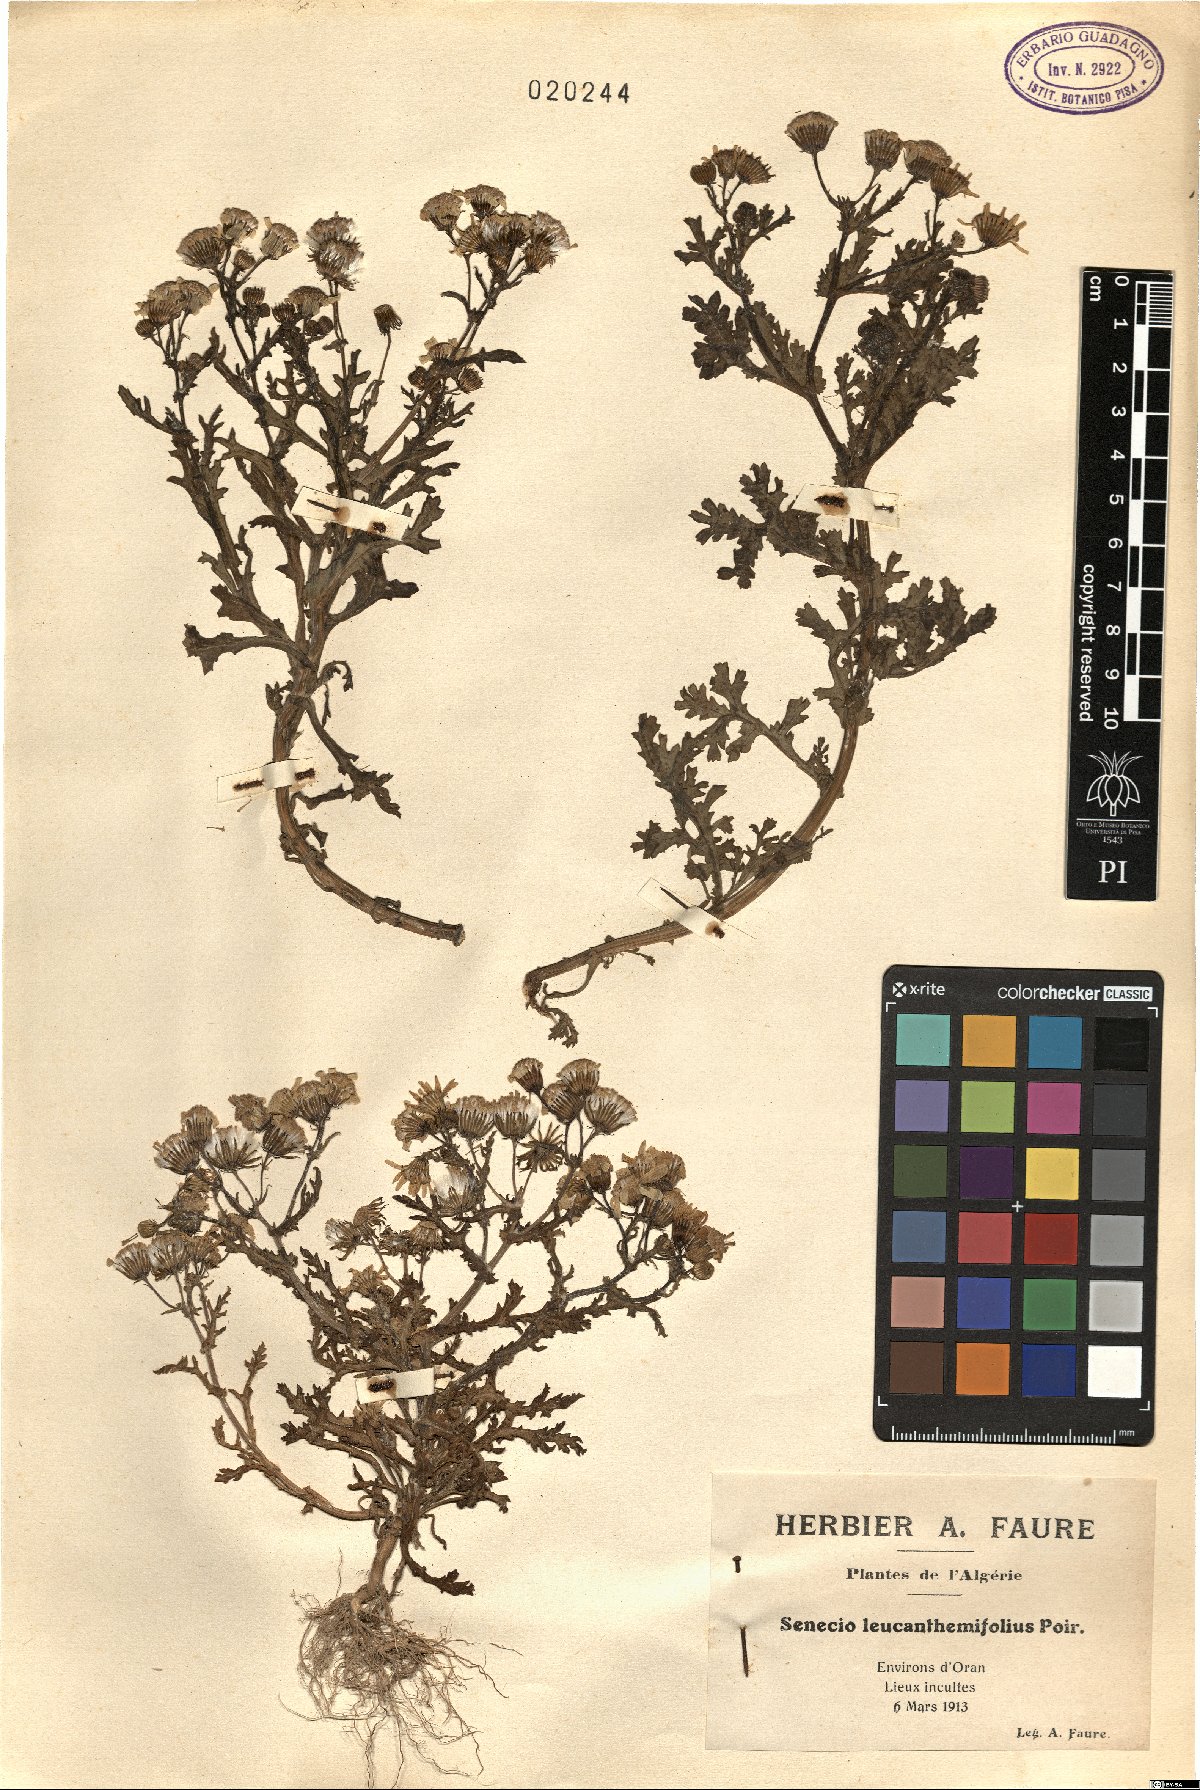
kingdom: Plantae
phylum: Tracheophyta
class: Magnoliopsida
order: Asterales
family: Asteraceae
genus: Senecio
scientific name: Senecio leucanthemifolius
